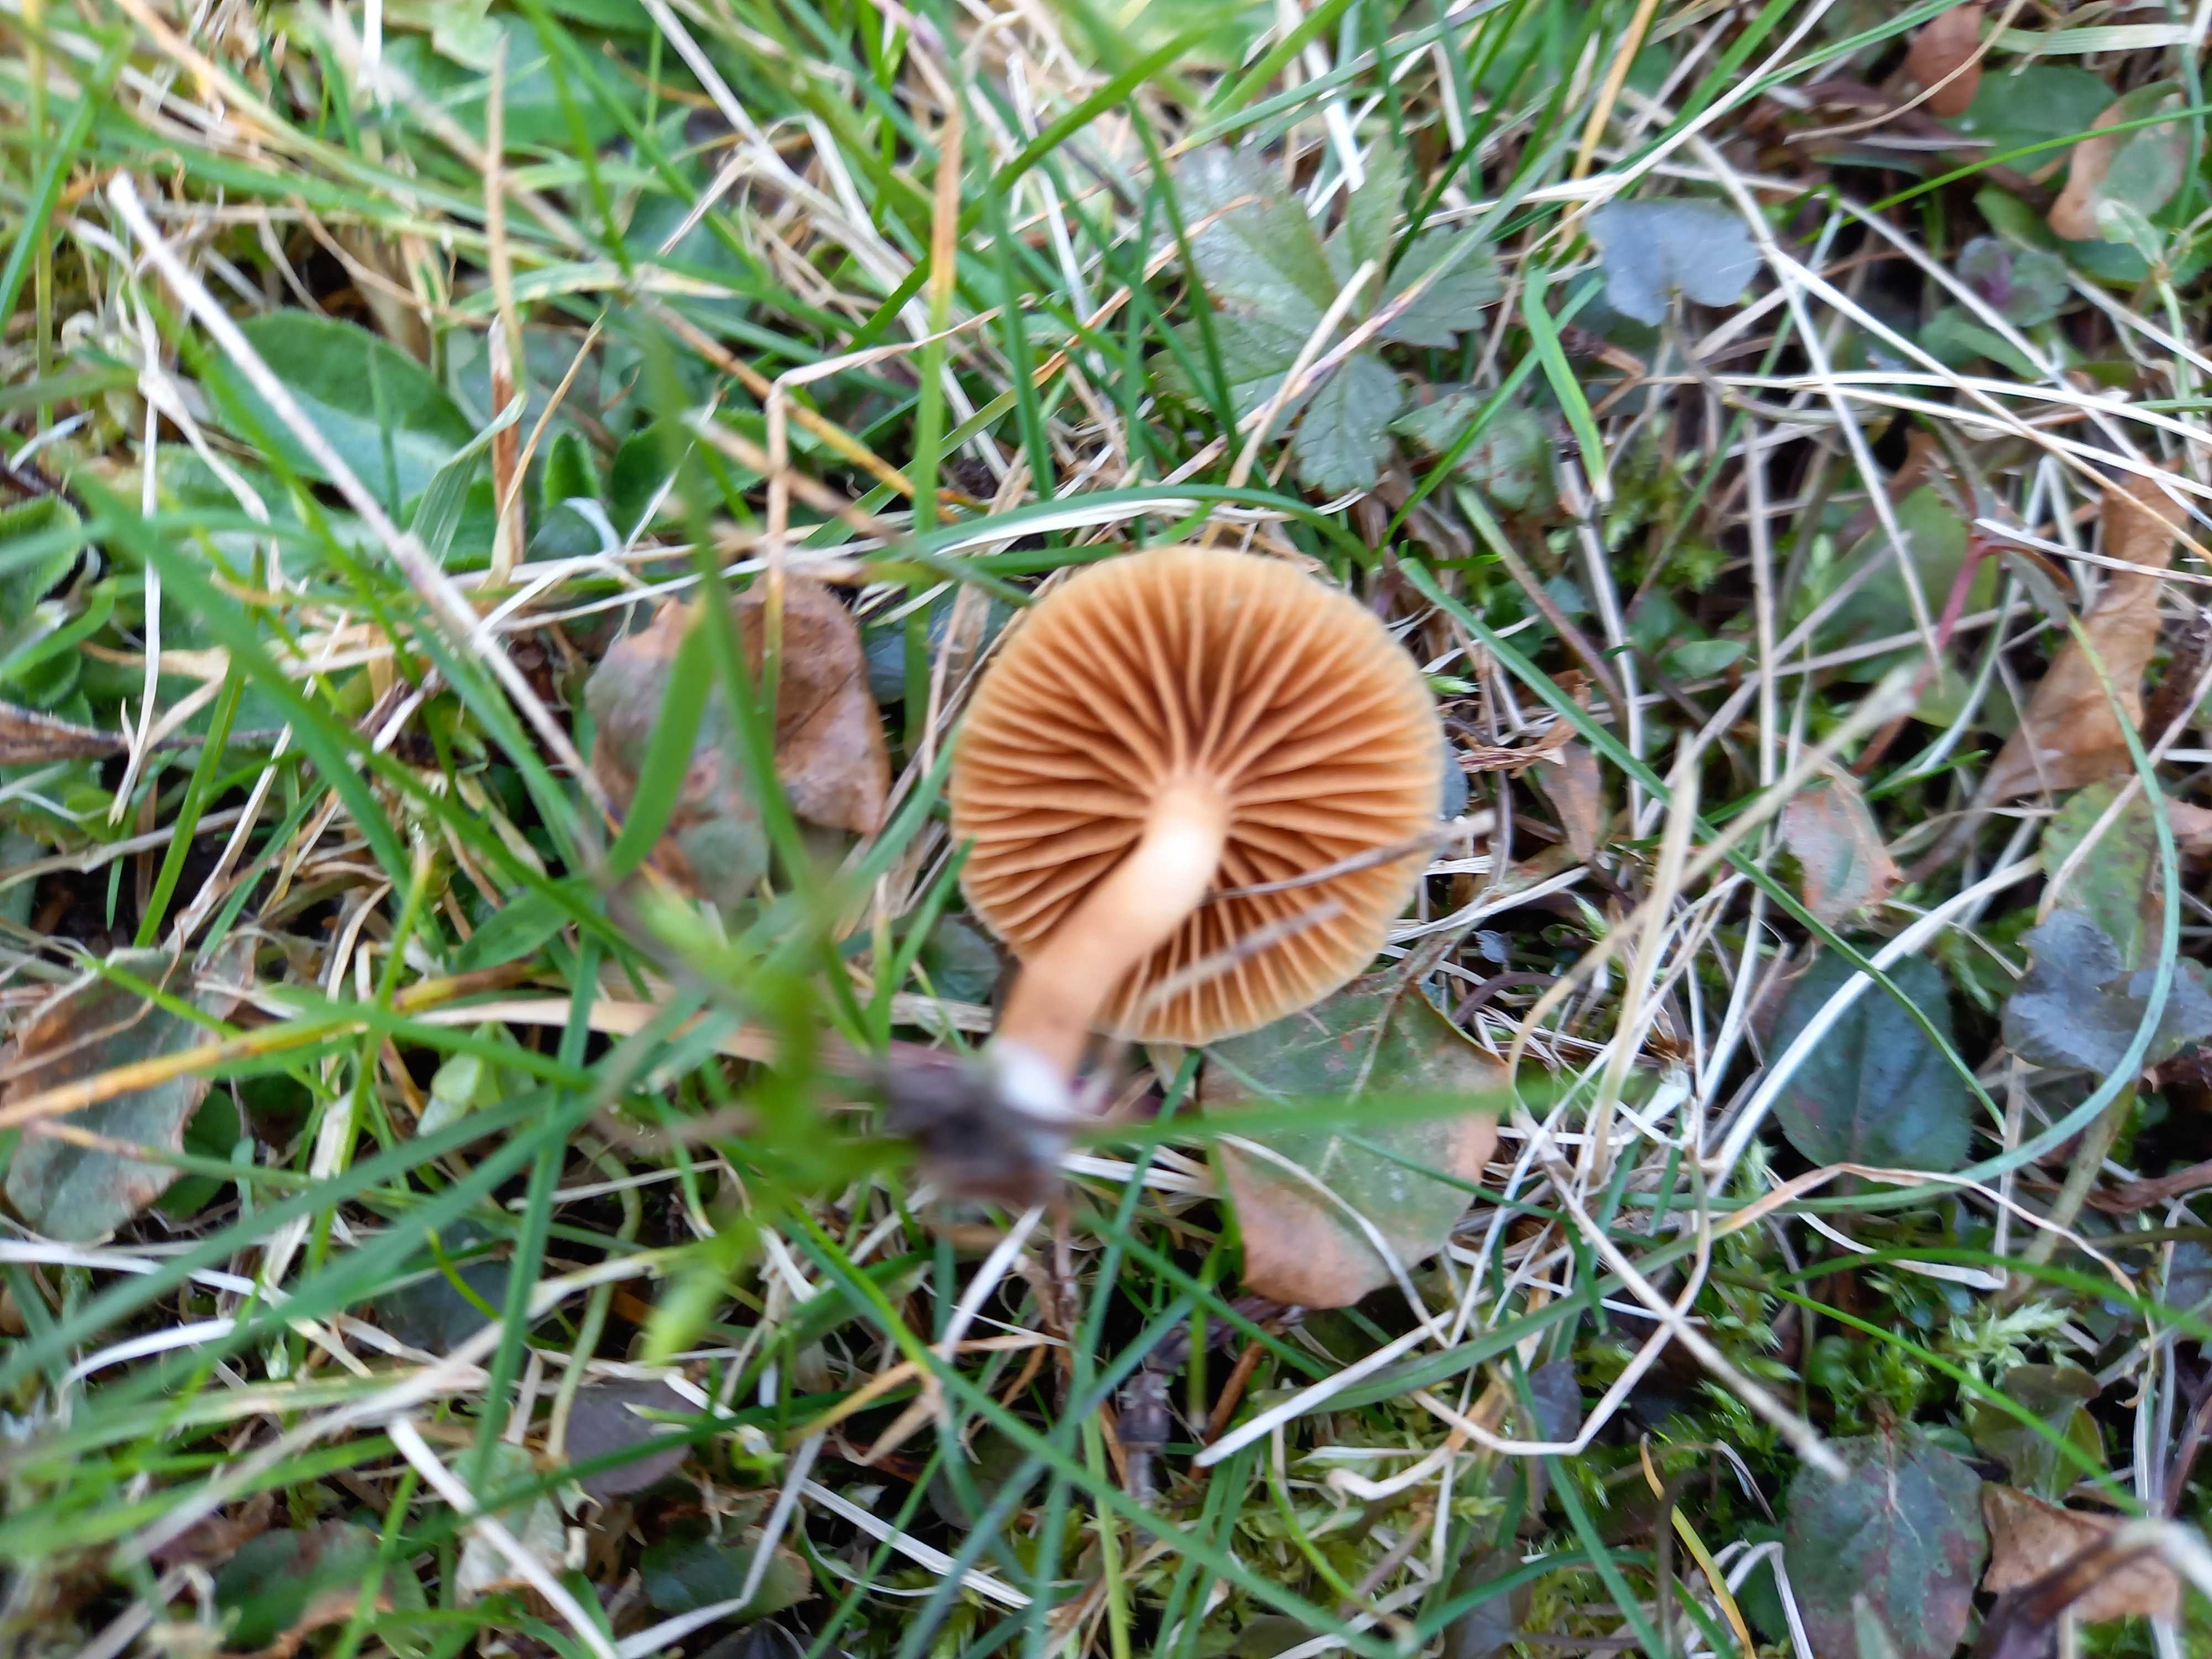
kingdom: Fungi
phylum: Basidiomycota
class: Agaricomycetes
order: Agaricales
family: Tubariaceae
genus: Tubaria
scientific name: Tubaria furfuracea
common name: kliddet fnughat
